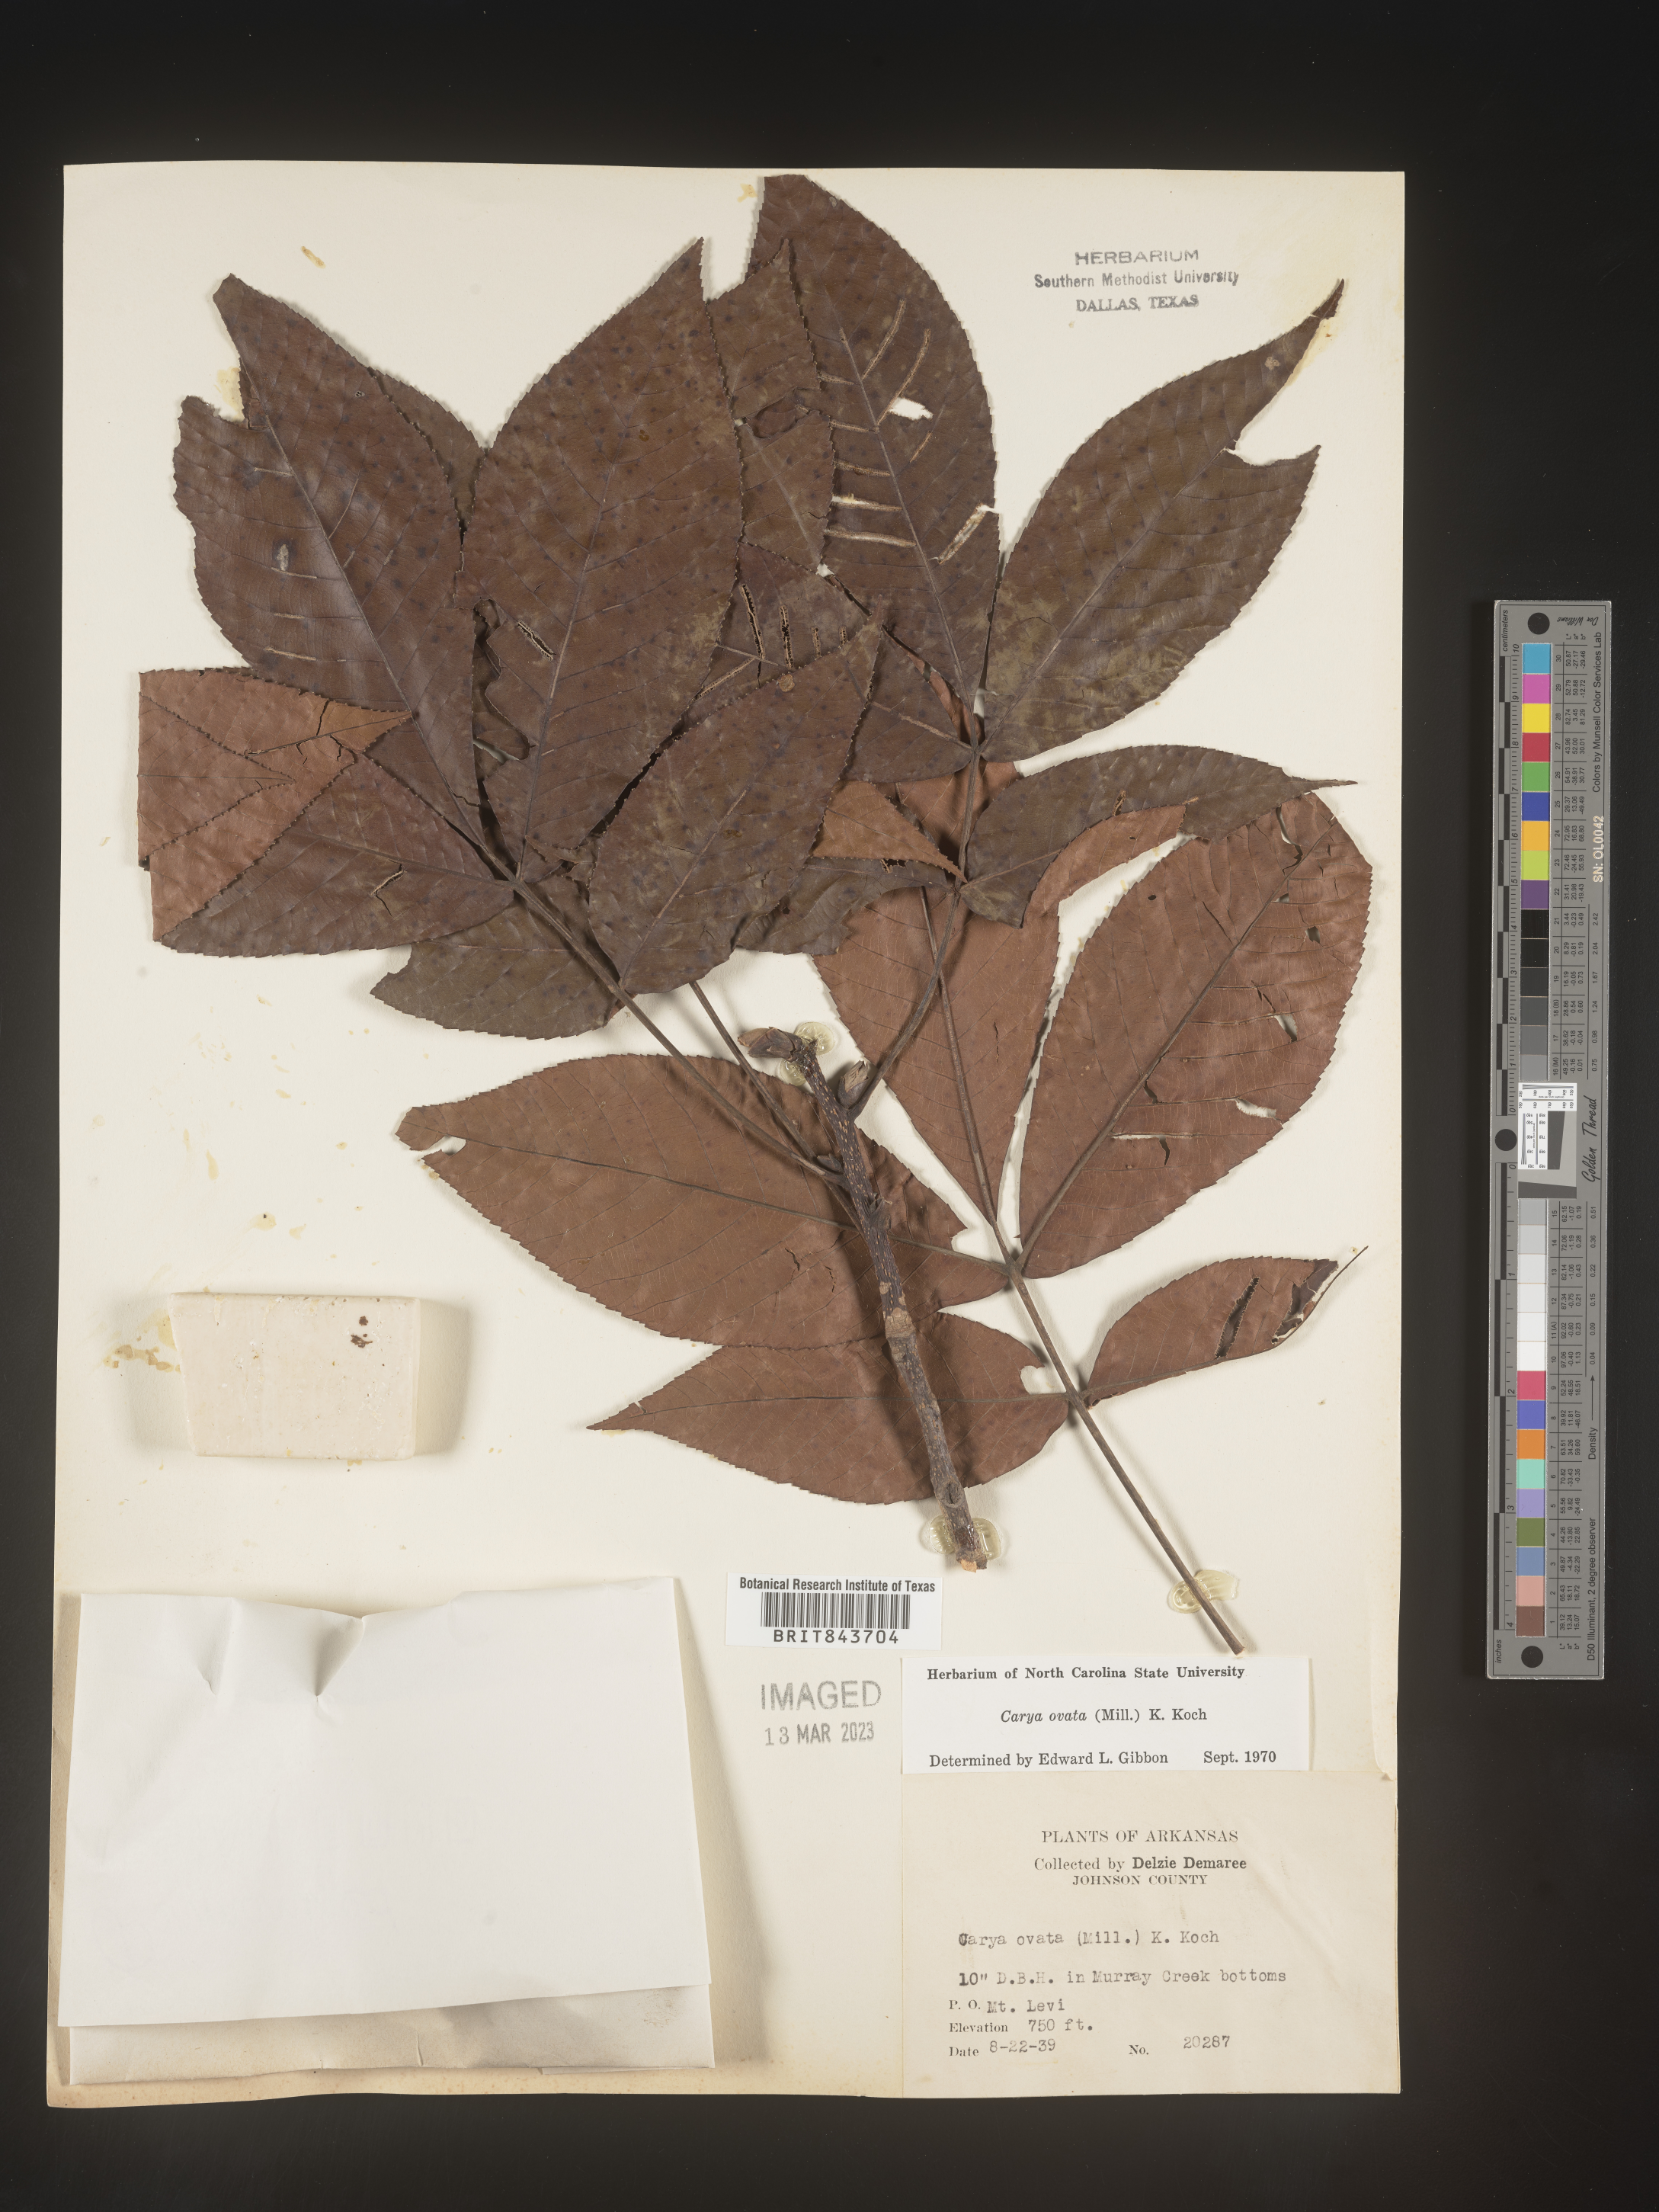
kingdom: Plantae
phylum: Tracheophyta
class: Magnoliopsida
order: Fagales
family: Juglandaceae
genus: Carya
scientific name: Carya ovata
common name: Shagbark hickory
